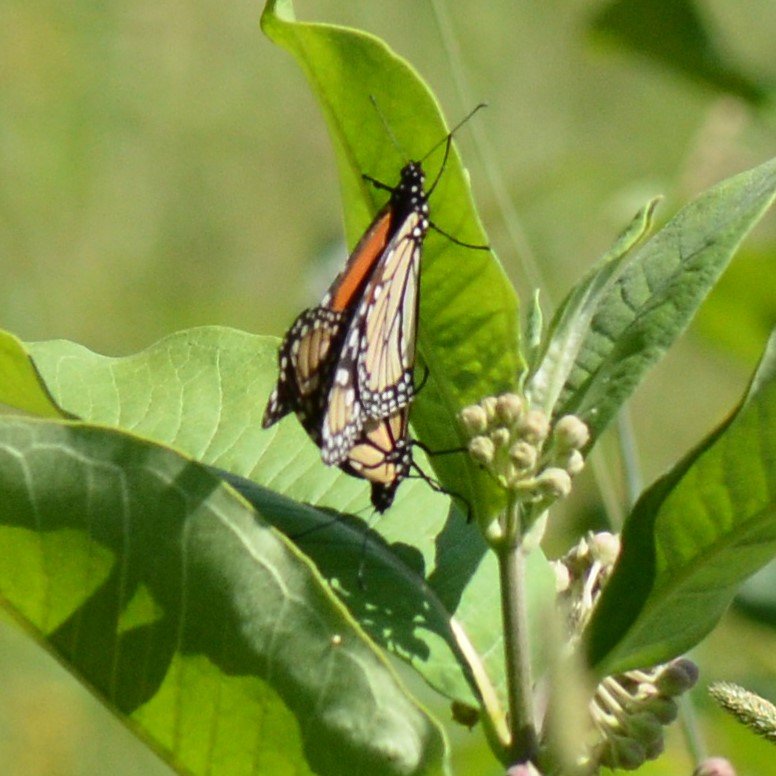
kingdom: Animalia
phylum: Arthropoda
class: Insecta
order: Lepidoptera
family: Nymphalidae
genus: Danaus
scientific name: Danaus plexippus
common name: Monarch
